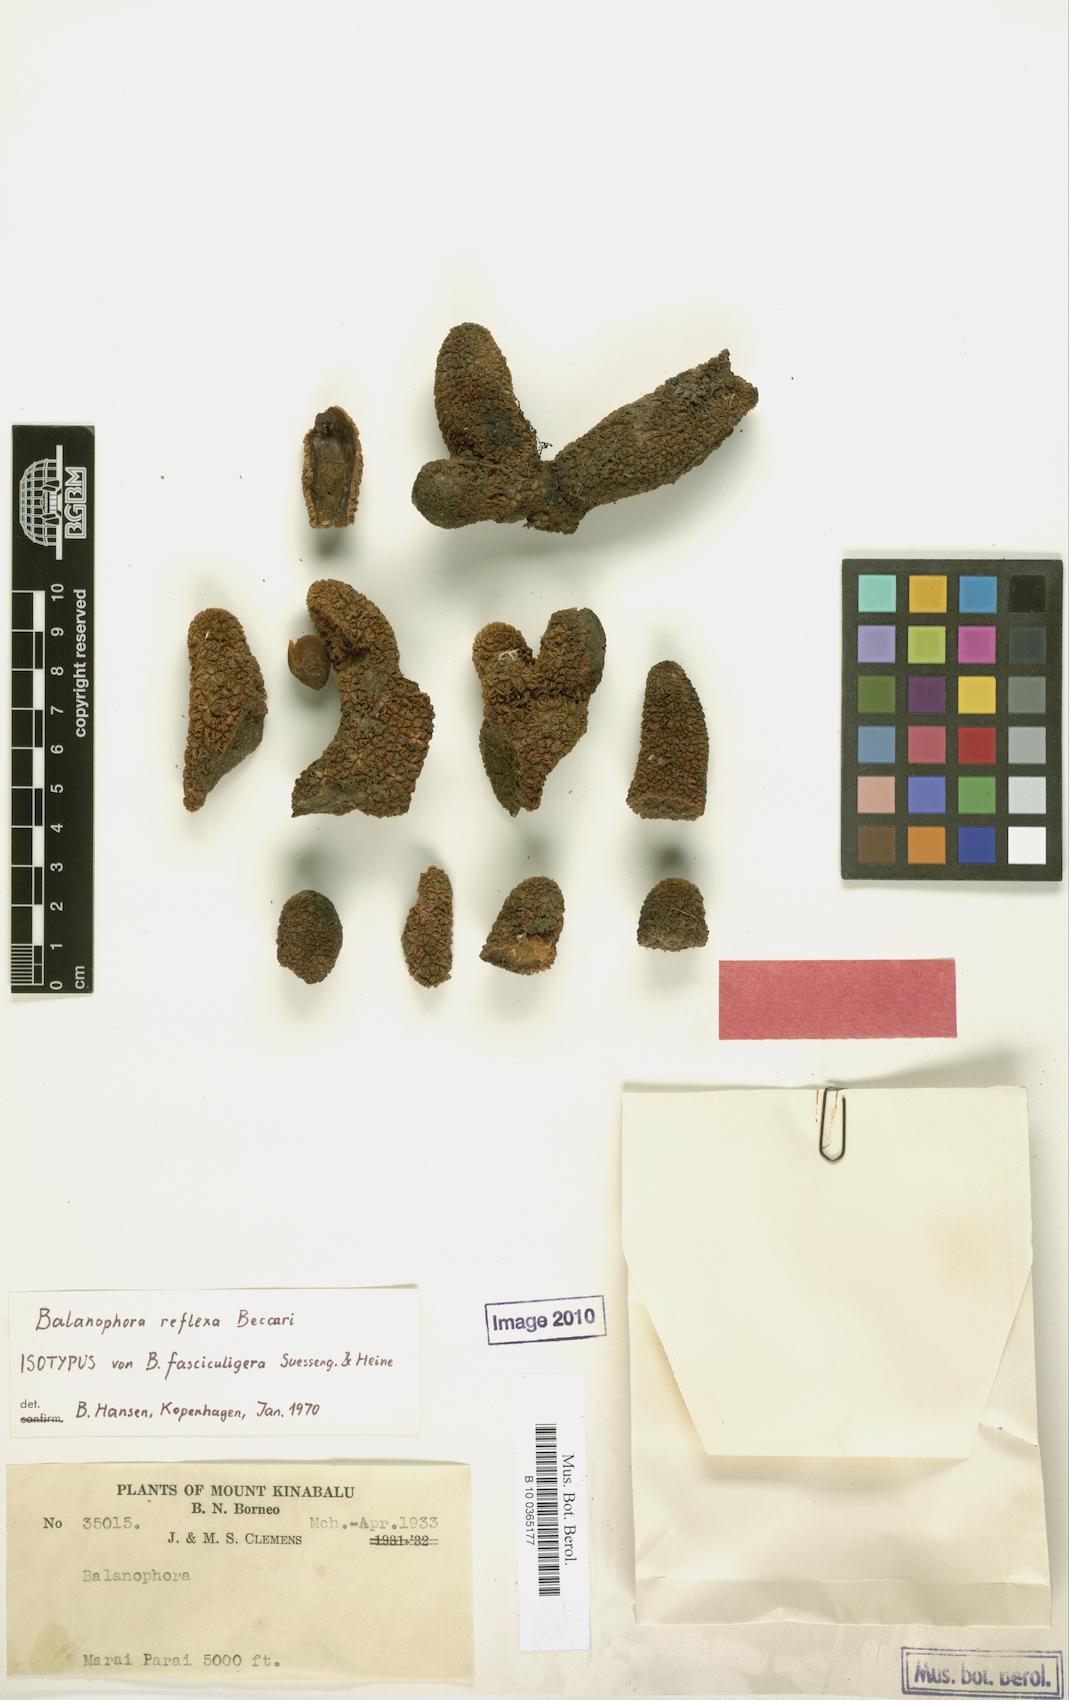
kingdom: Plantae
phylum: Tracheophyta
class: Magnoliopsida
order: Santalales
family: Balanophoraceae
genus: Balanophora
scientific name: Balanophora reflexa
